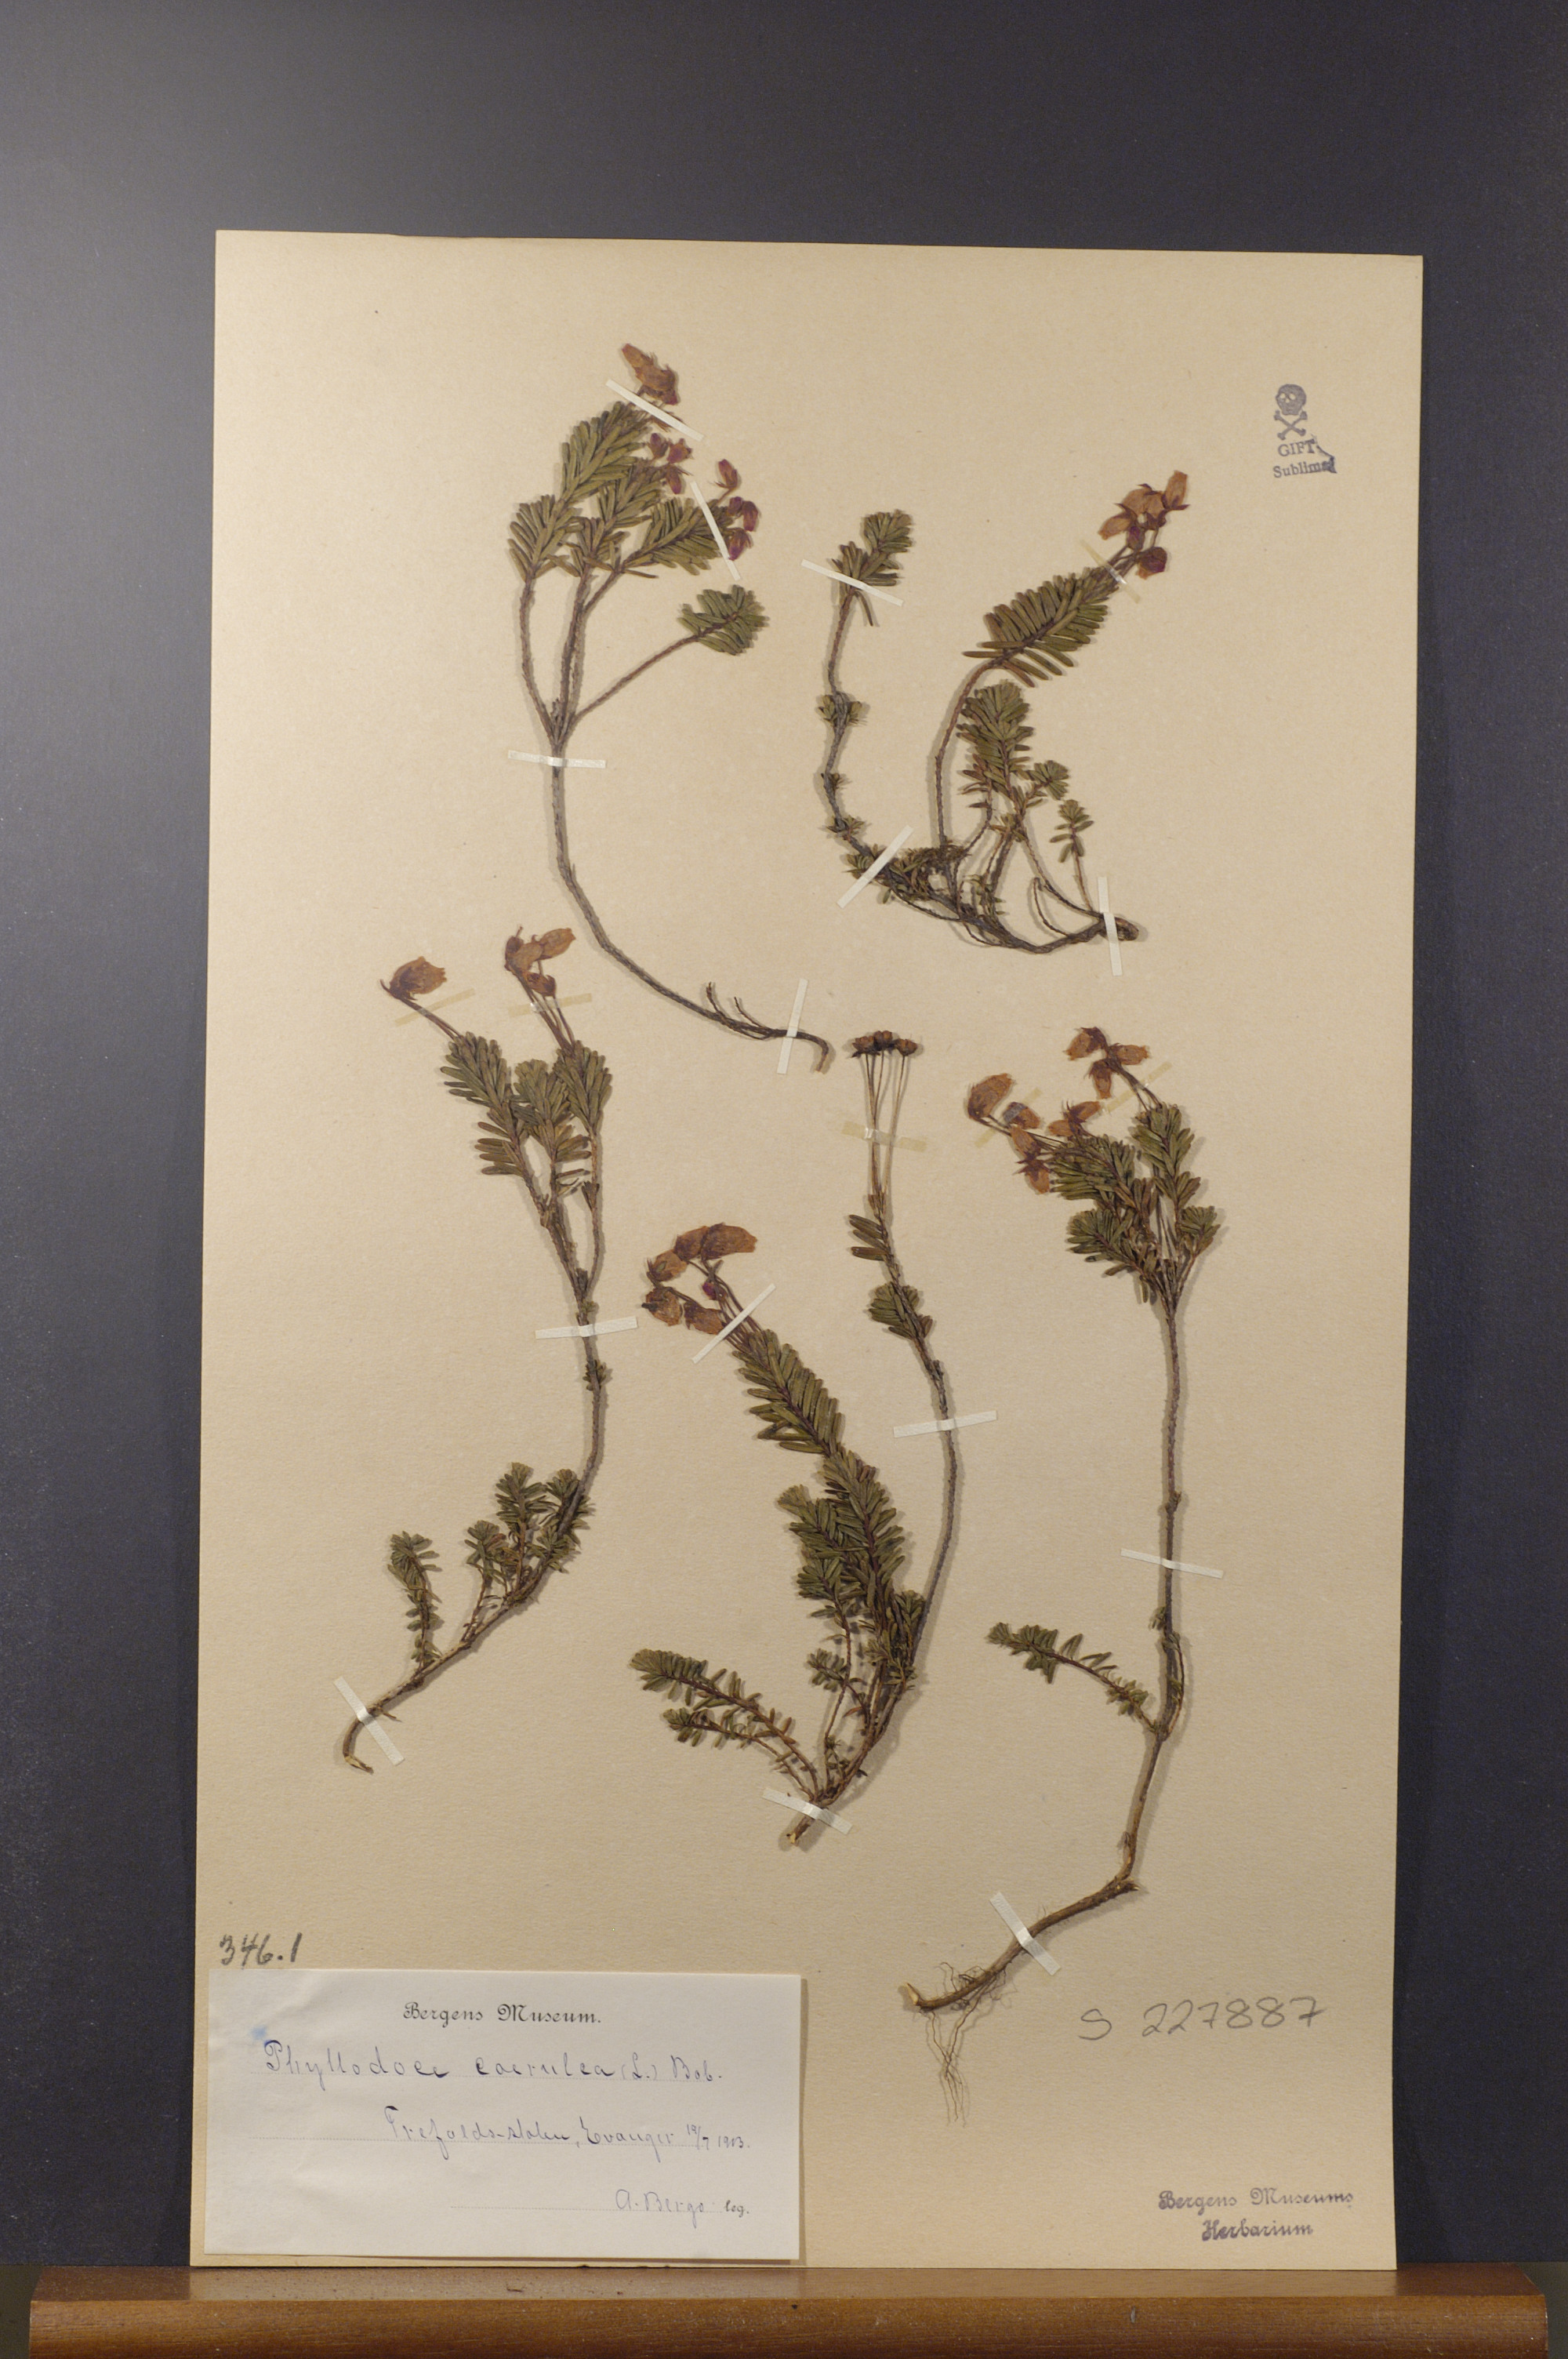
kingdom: Plantae
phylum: Tracheophyta
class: Magnoliopsida
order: Ericales
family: Ericaceae
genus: Phyllodoce
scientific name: Phyllodoce caerulea
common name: Blue heath
